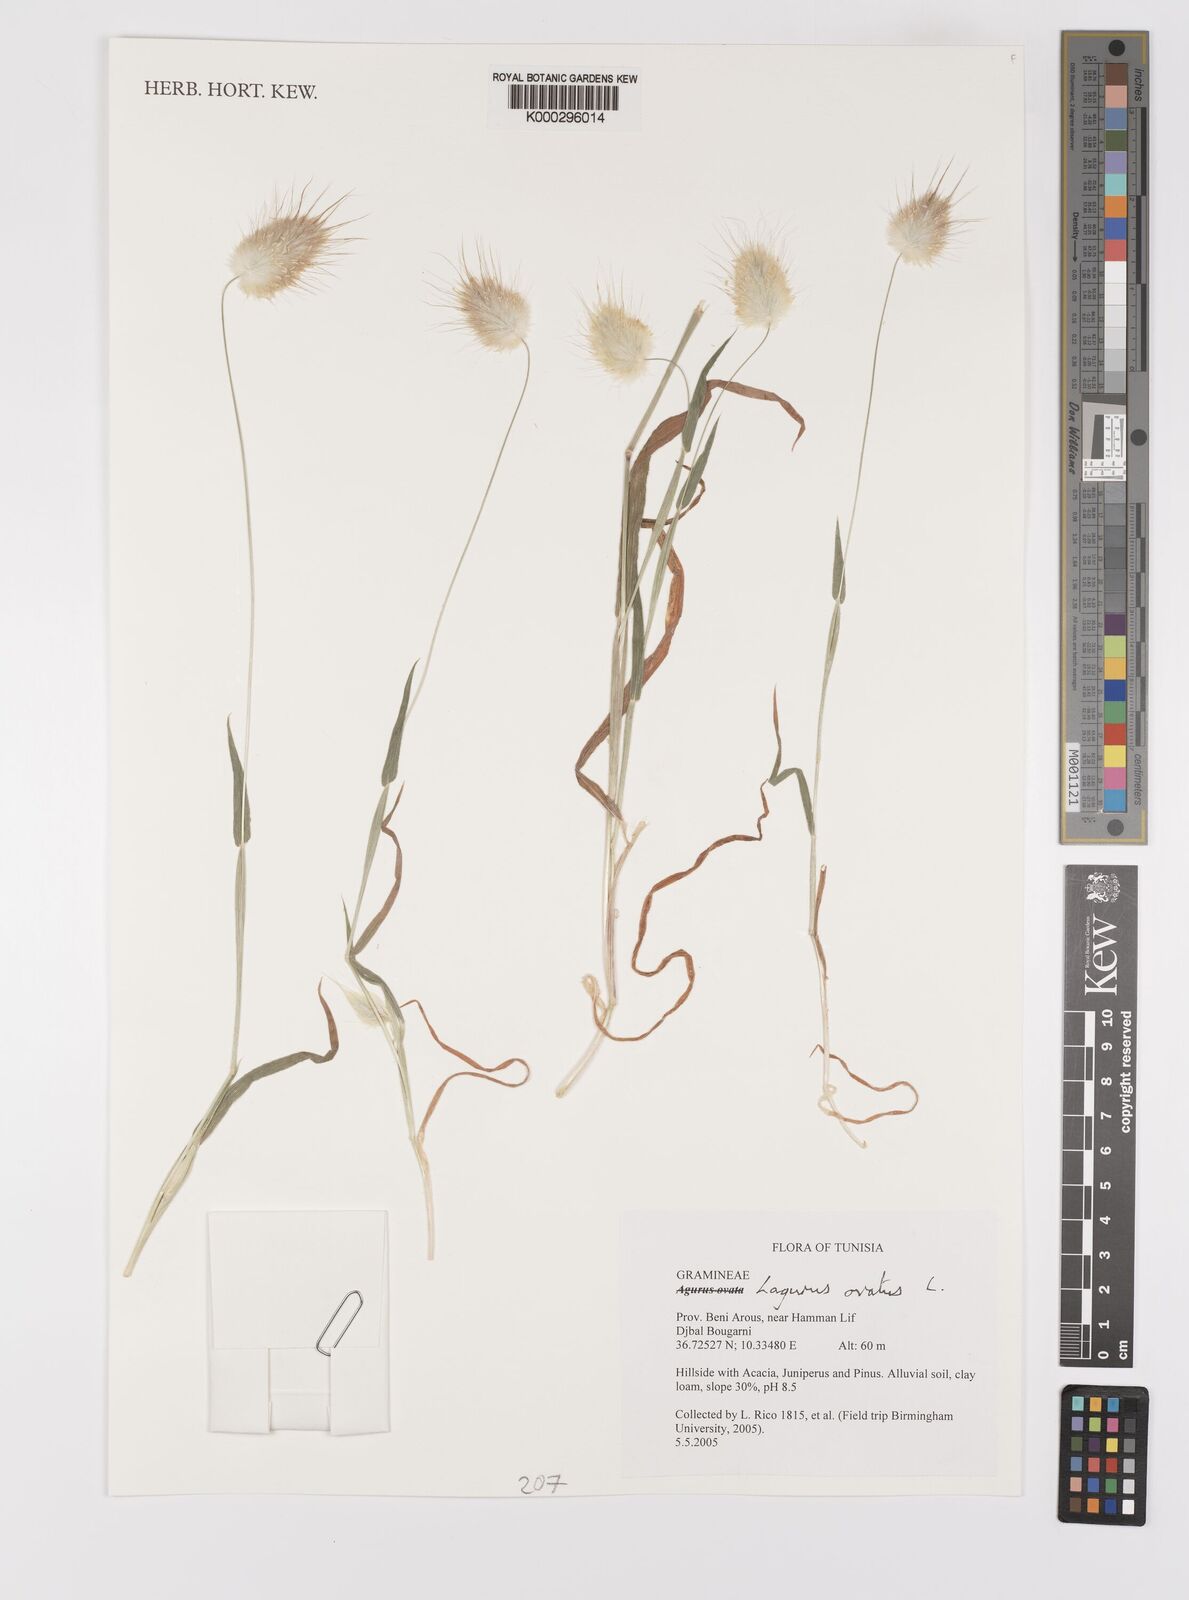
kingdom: Plantae
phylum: Tracheophyta
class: Liliopsida
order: Poales
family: Poaceae
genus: Lagurus
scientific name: Lagurus ovatus
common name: Hare's-tail
